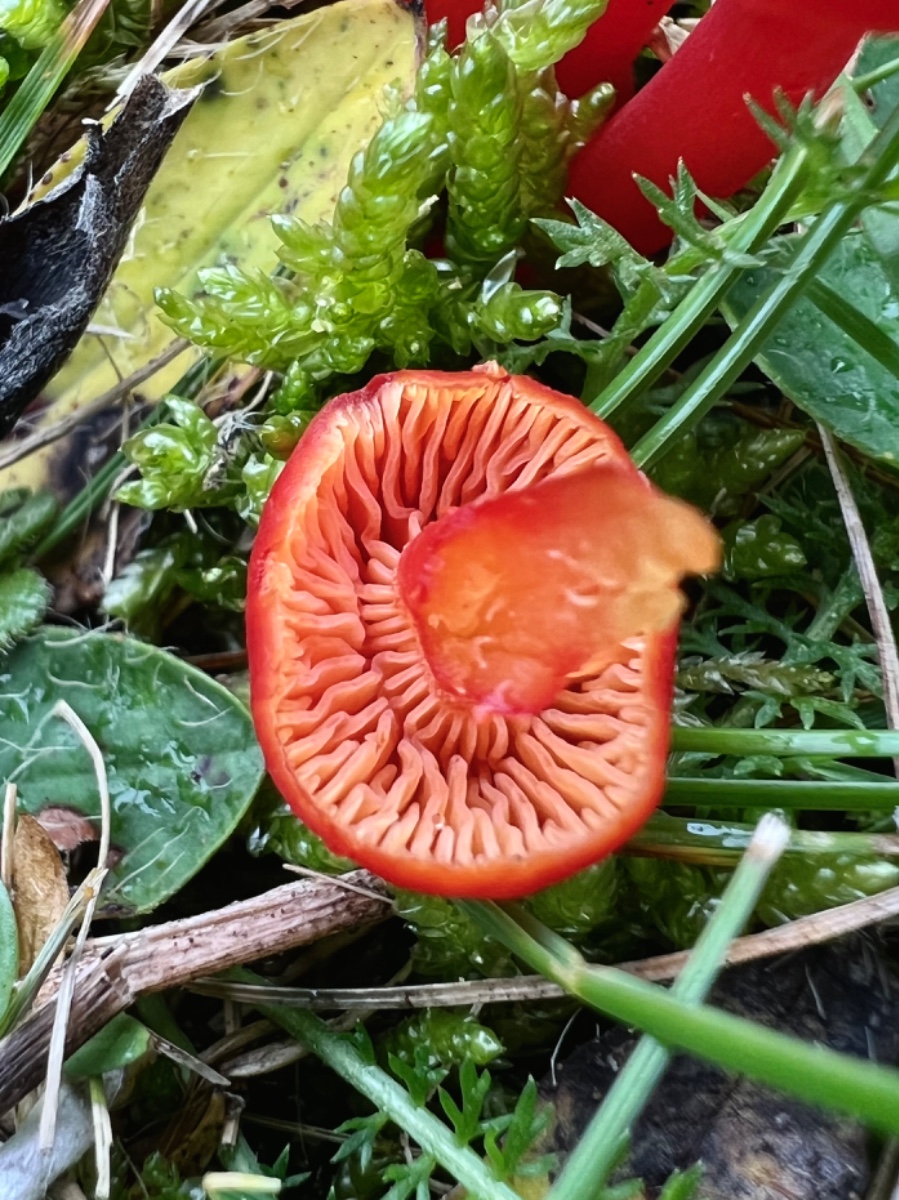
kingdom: Fungi
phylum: Basidiomycota
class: Agaricomycetes
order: Agaricales
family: Hygrophoraceae
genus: Hygrocybe
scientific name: Hygrocybe phaeococcinea
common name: sortdugget vokshat
